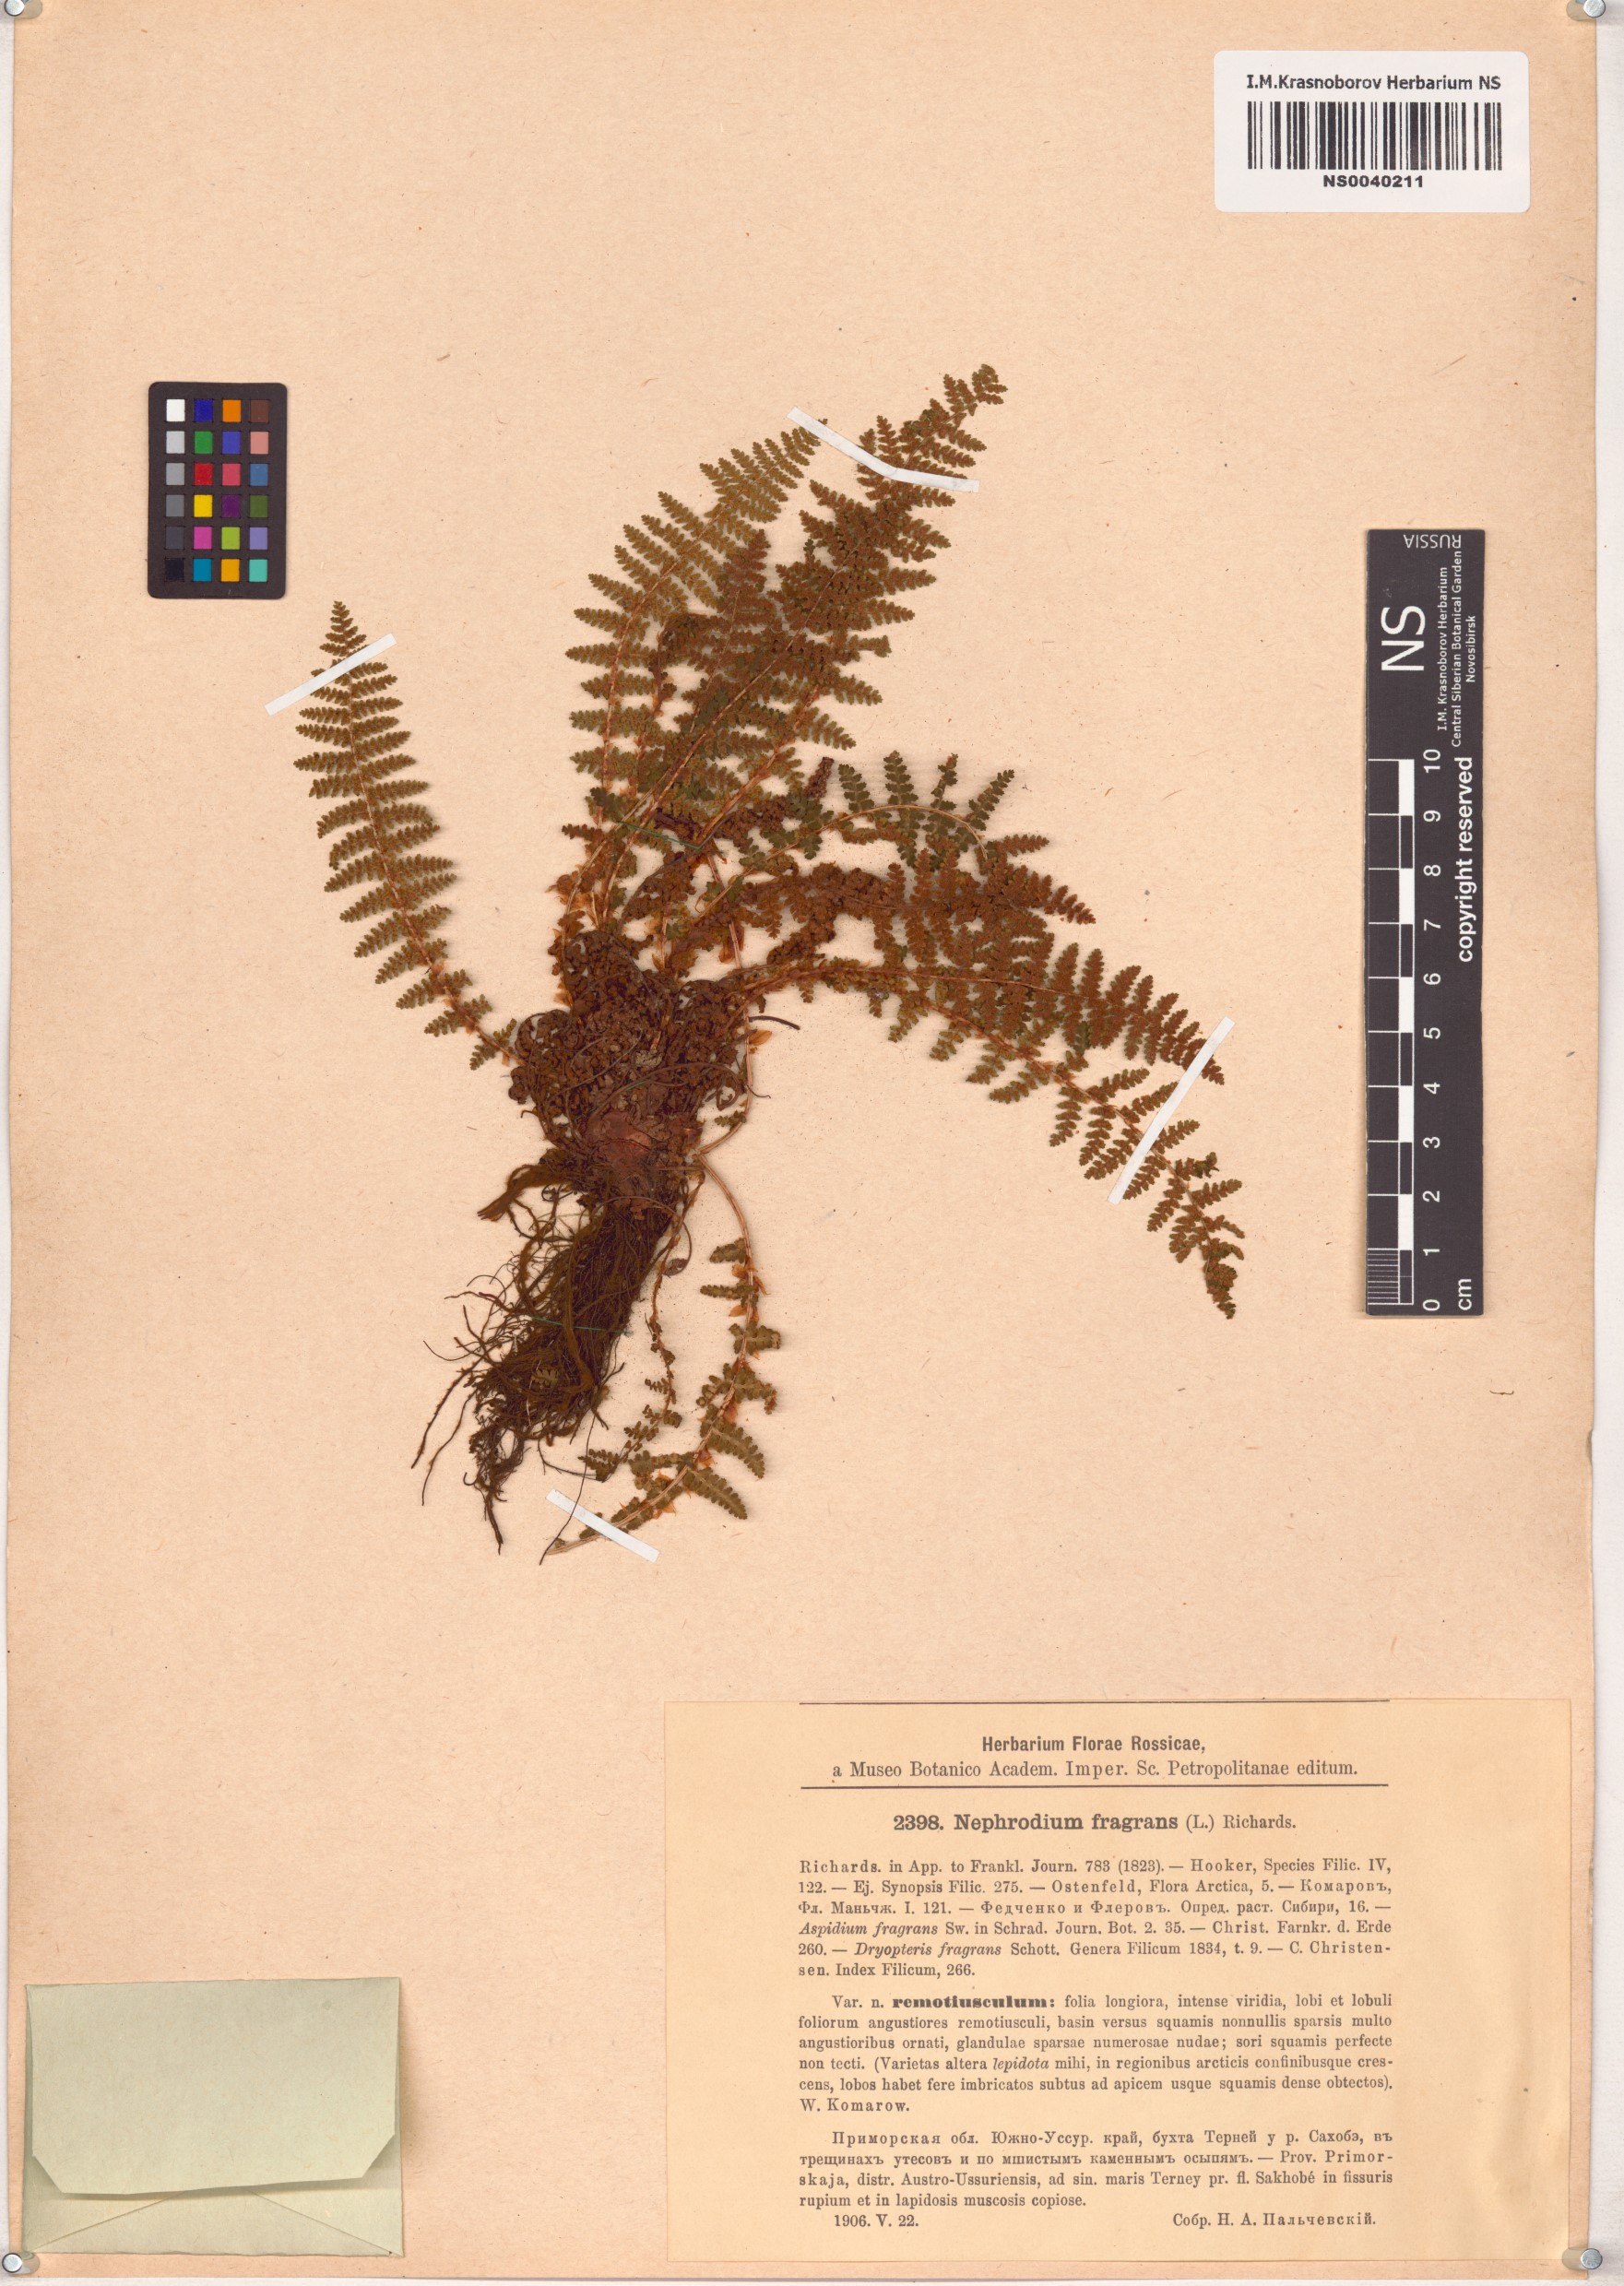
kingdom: Plantae
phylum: Tracheophyta
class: Polypodiopsida
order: Polypodiales
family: Dryopteridaceae
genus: Dryopteris
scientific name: Dryopteris fragrans
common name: Fragrant wood fern
